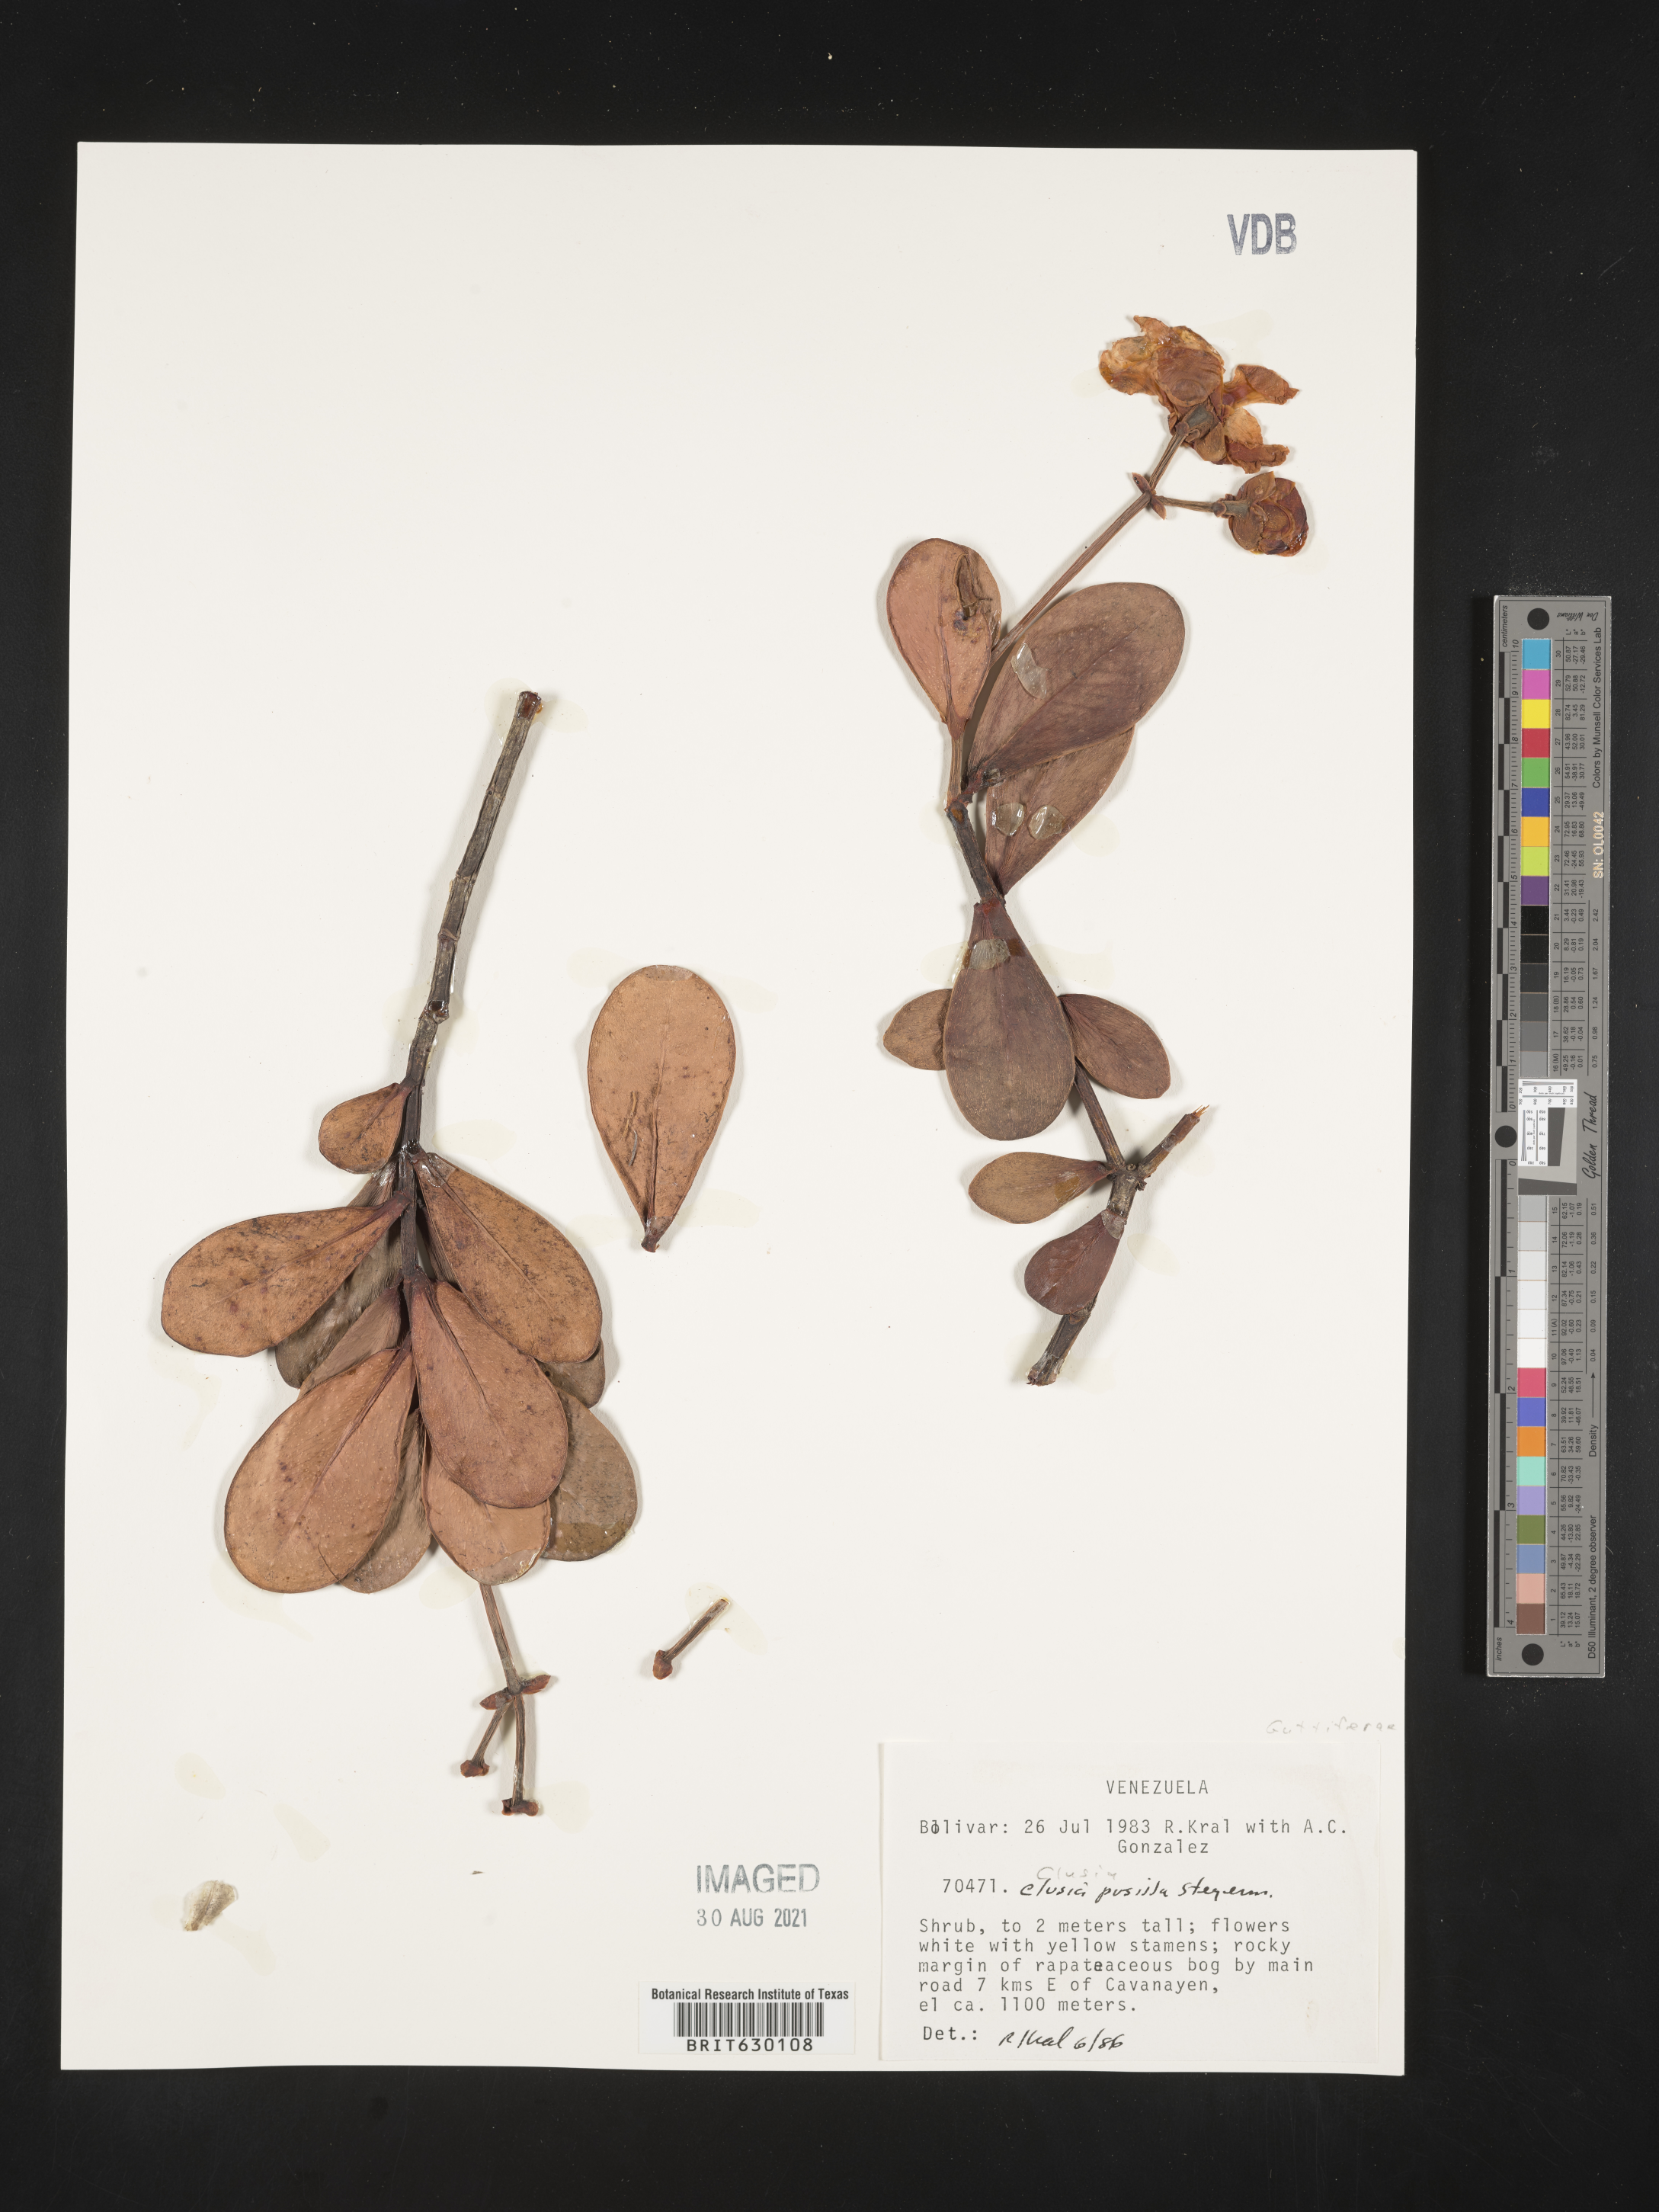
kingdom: Plantae
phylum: Tracheophyta
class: Magnoliopsida
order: Malpighiales
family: Clusiaceae
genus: Clusia
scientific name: Clusia pusilla
